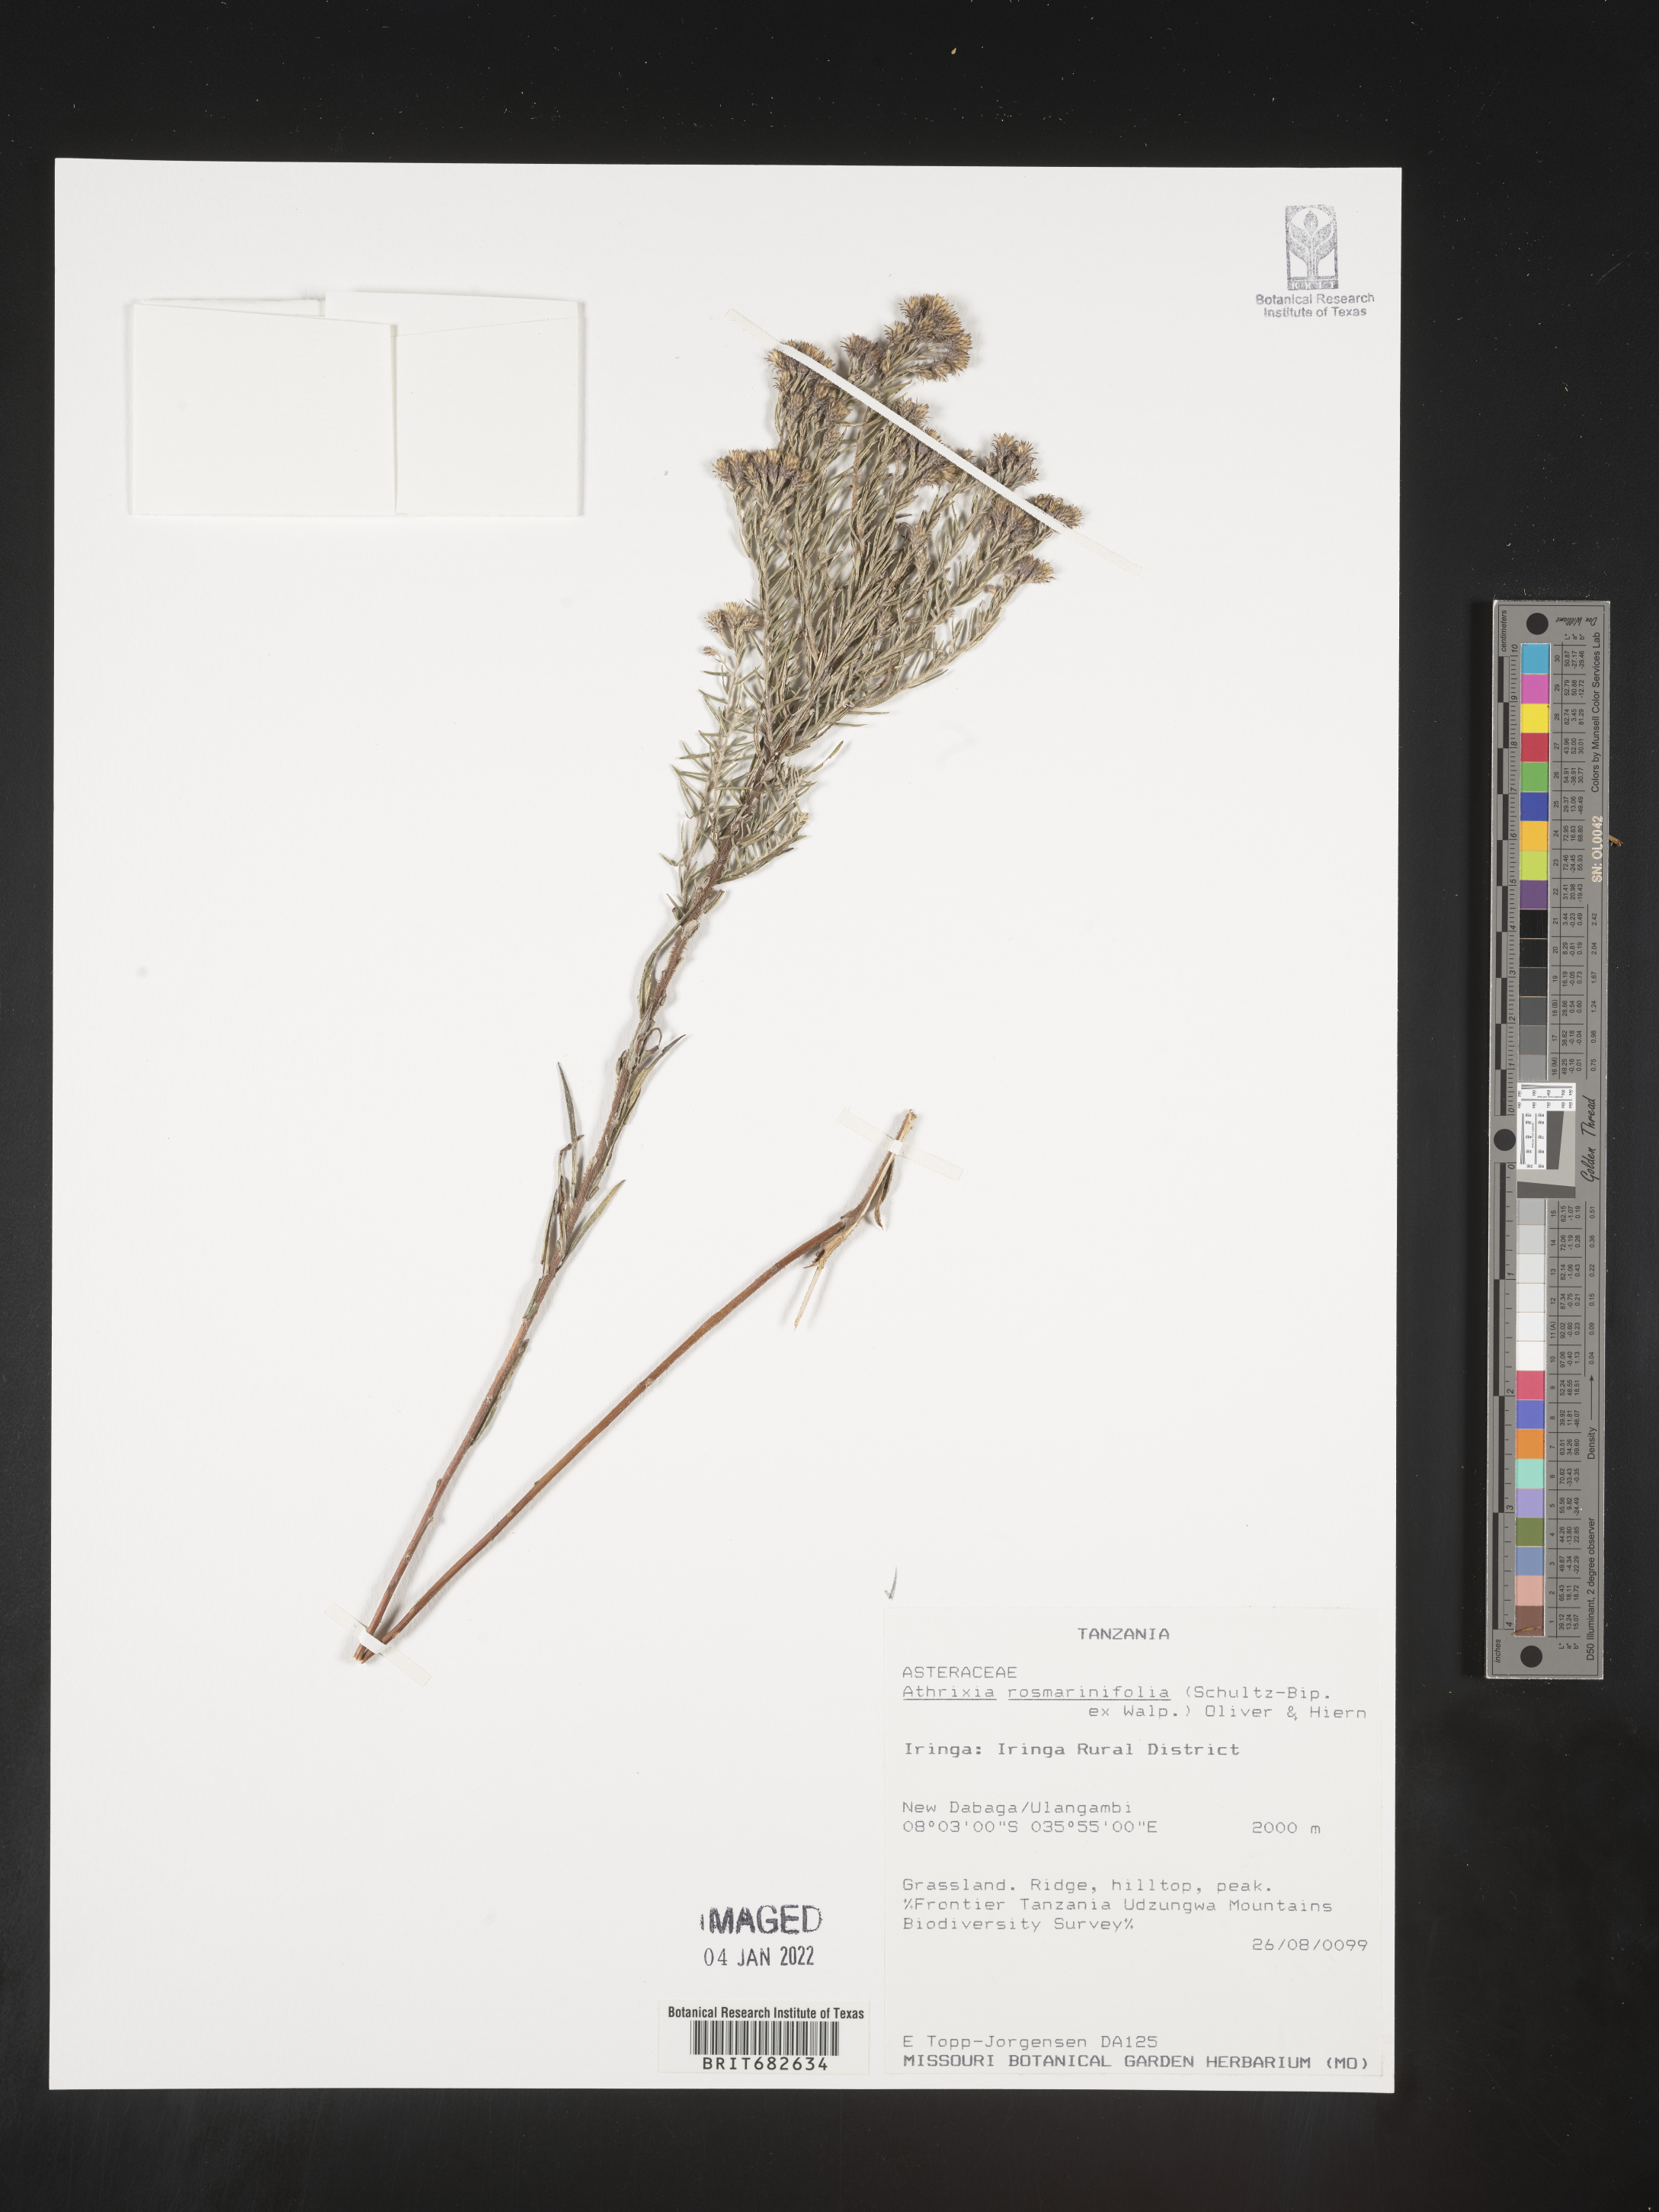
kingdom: Plantae
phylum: Tracheophyta
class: Magnoliopsida
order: Asterales
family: Asteraceae
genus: Athrixia
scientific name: Athrixia
